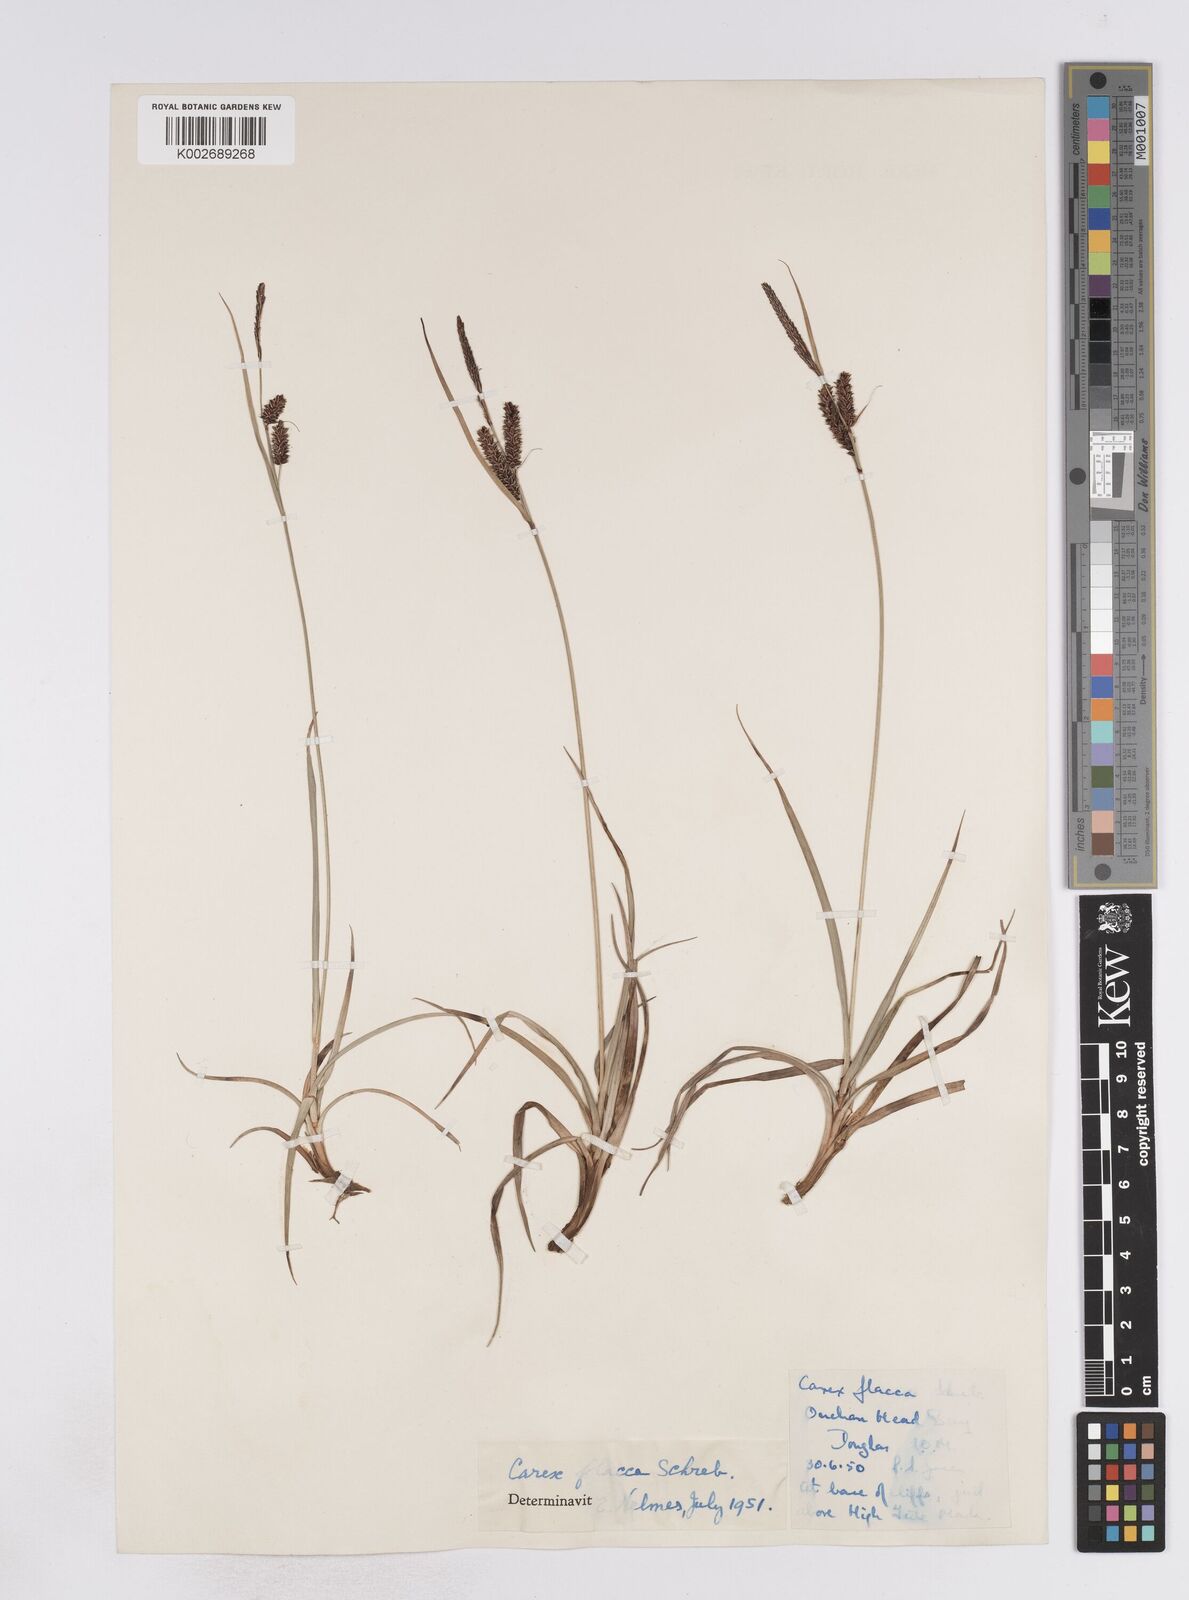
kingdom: Plantae
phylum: Tracheophyta
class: Liliopsida
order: Poales
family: Cyperaceae
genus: Carex
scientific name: Carex flacca
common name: Glaucous sedge
